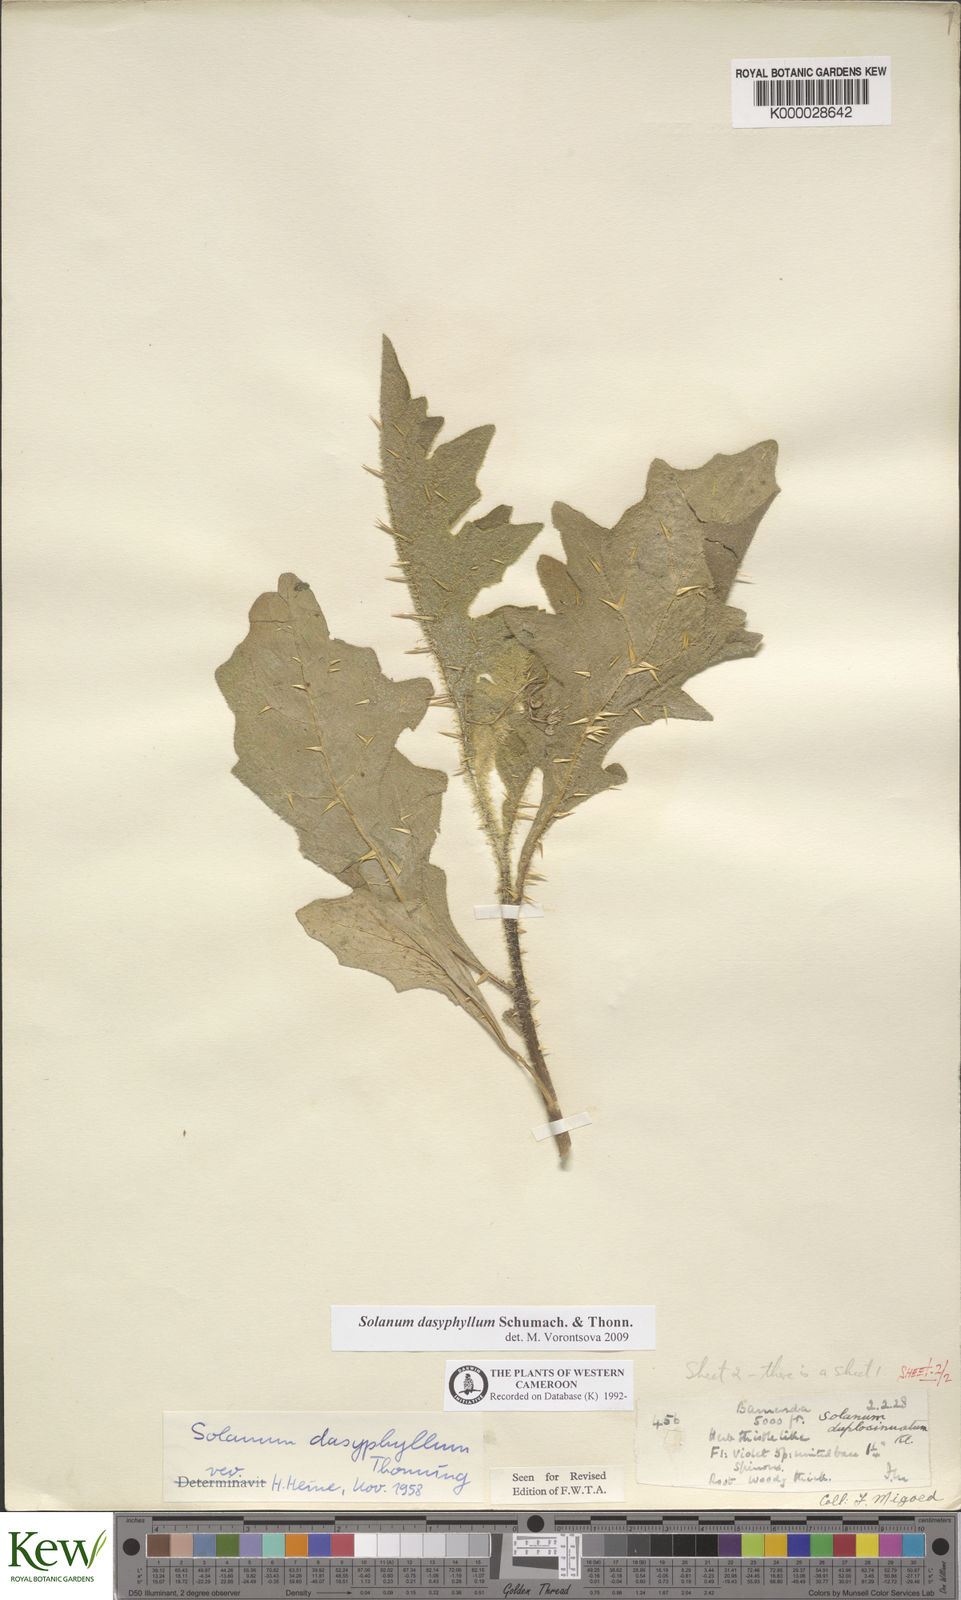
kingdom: Plantae
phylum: Tracheophyta
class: Magnoliopsida
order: Solanales
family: Solanaceae
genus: Solanum
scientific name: Solanum dasyphyllum
